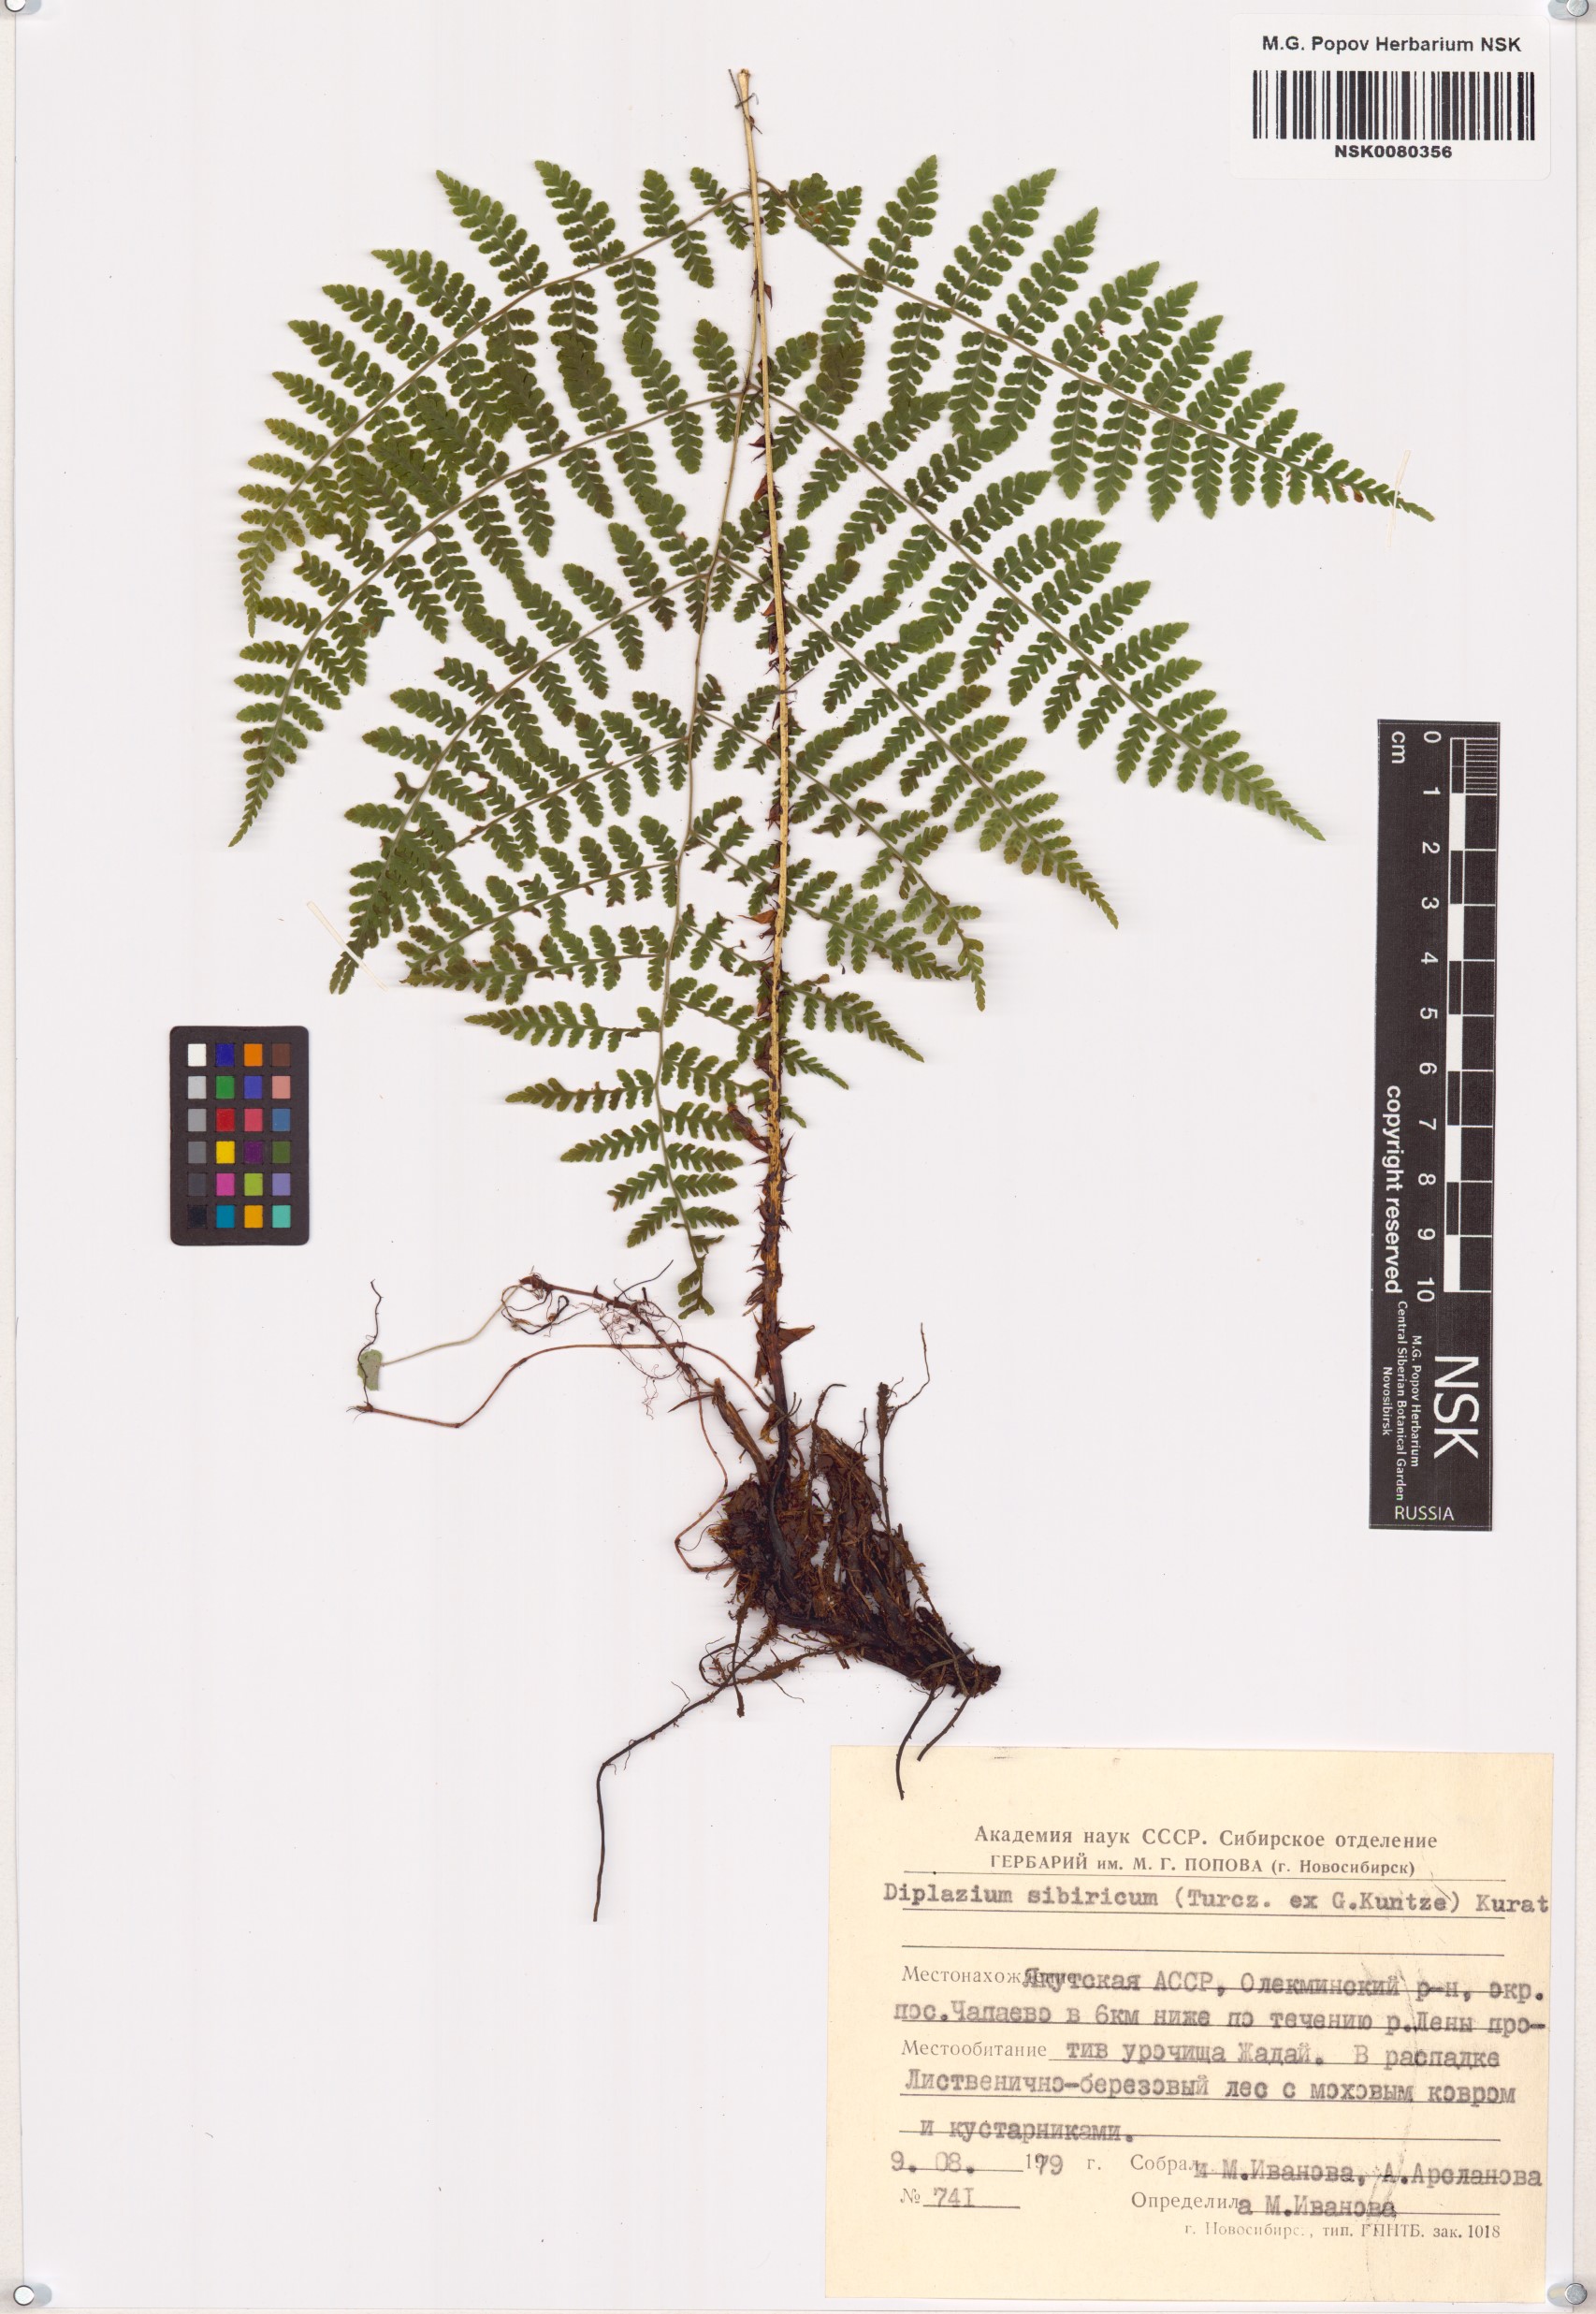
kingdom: Plantae
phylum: Tracheophyta
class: Polypodiopsida
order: Polypodiales
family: Athyriaceae
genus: Diplazium
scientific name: Diplazium sibiricum
